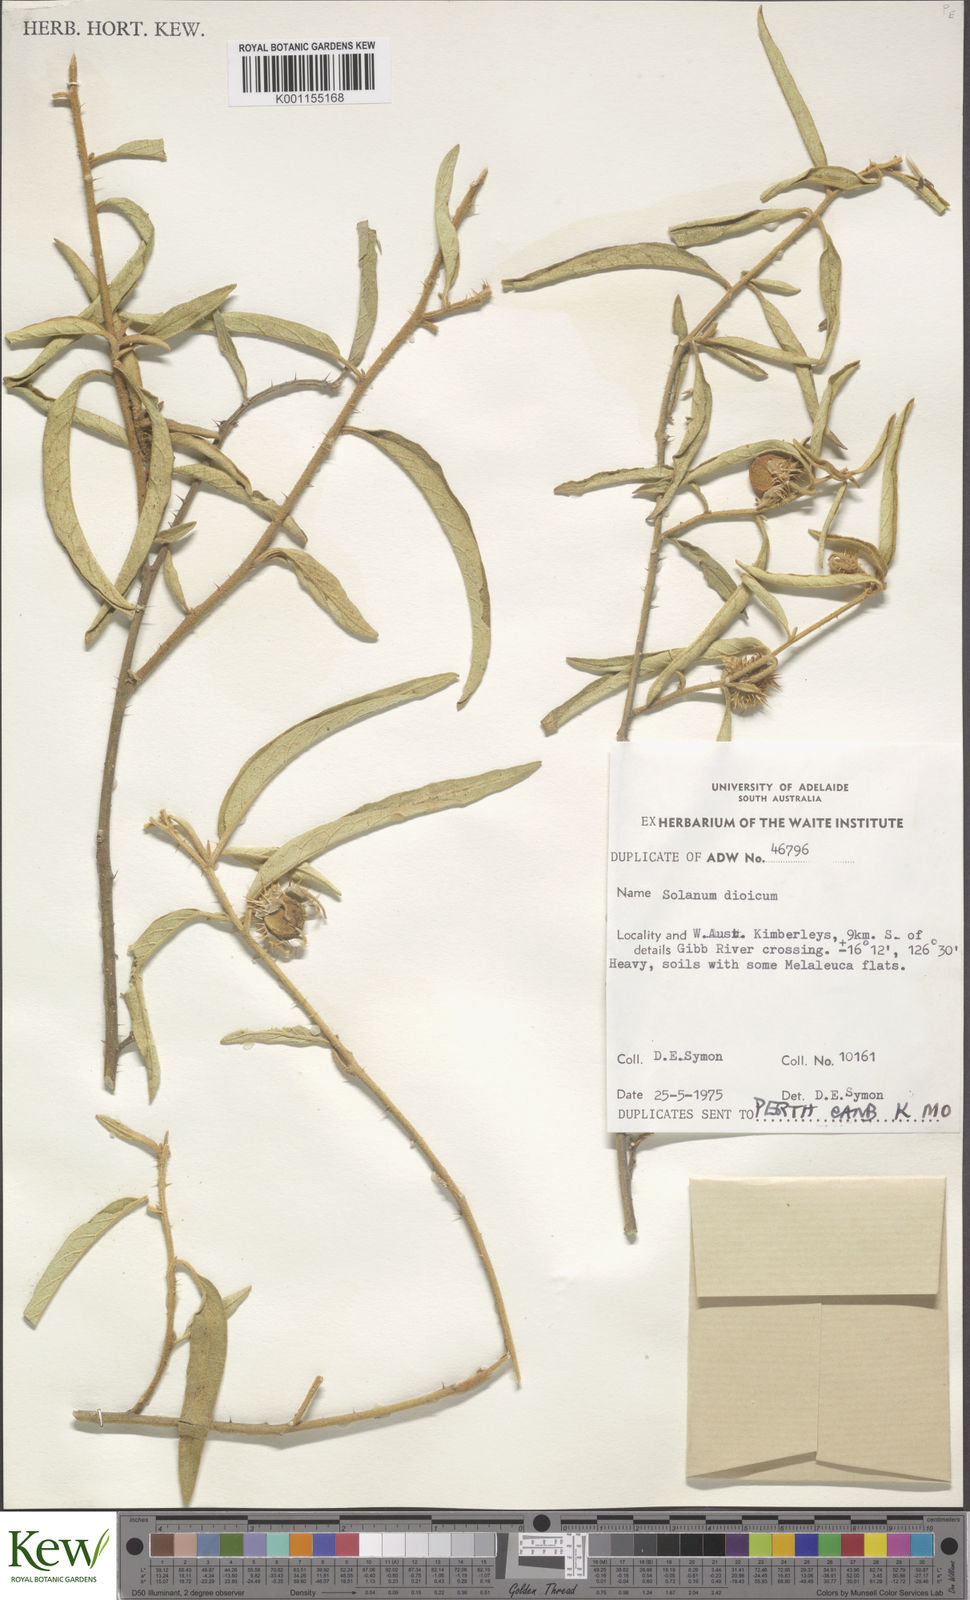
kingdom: Plantae
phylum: Tracheophyta
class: Magnoliopsida
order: Solanales
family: Solanaceae
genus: Solanum
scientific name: Solanum dioicum
